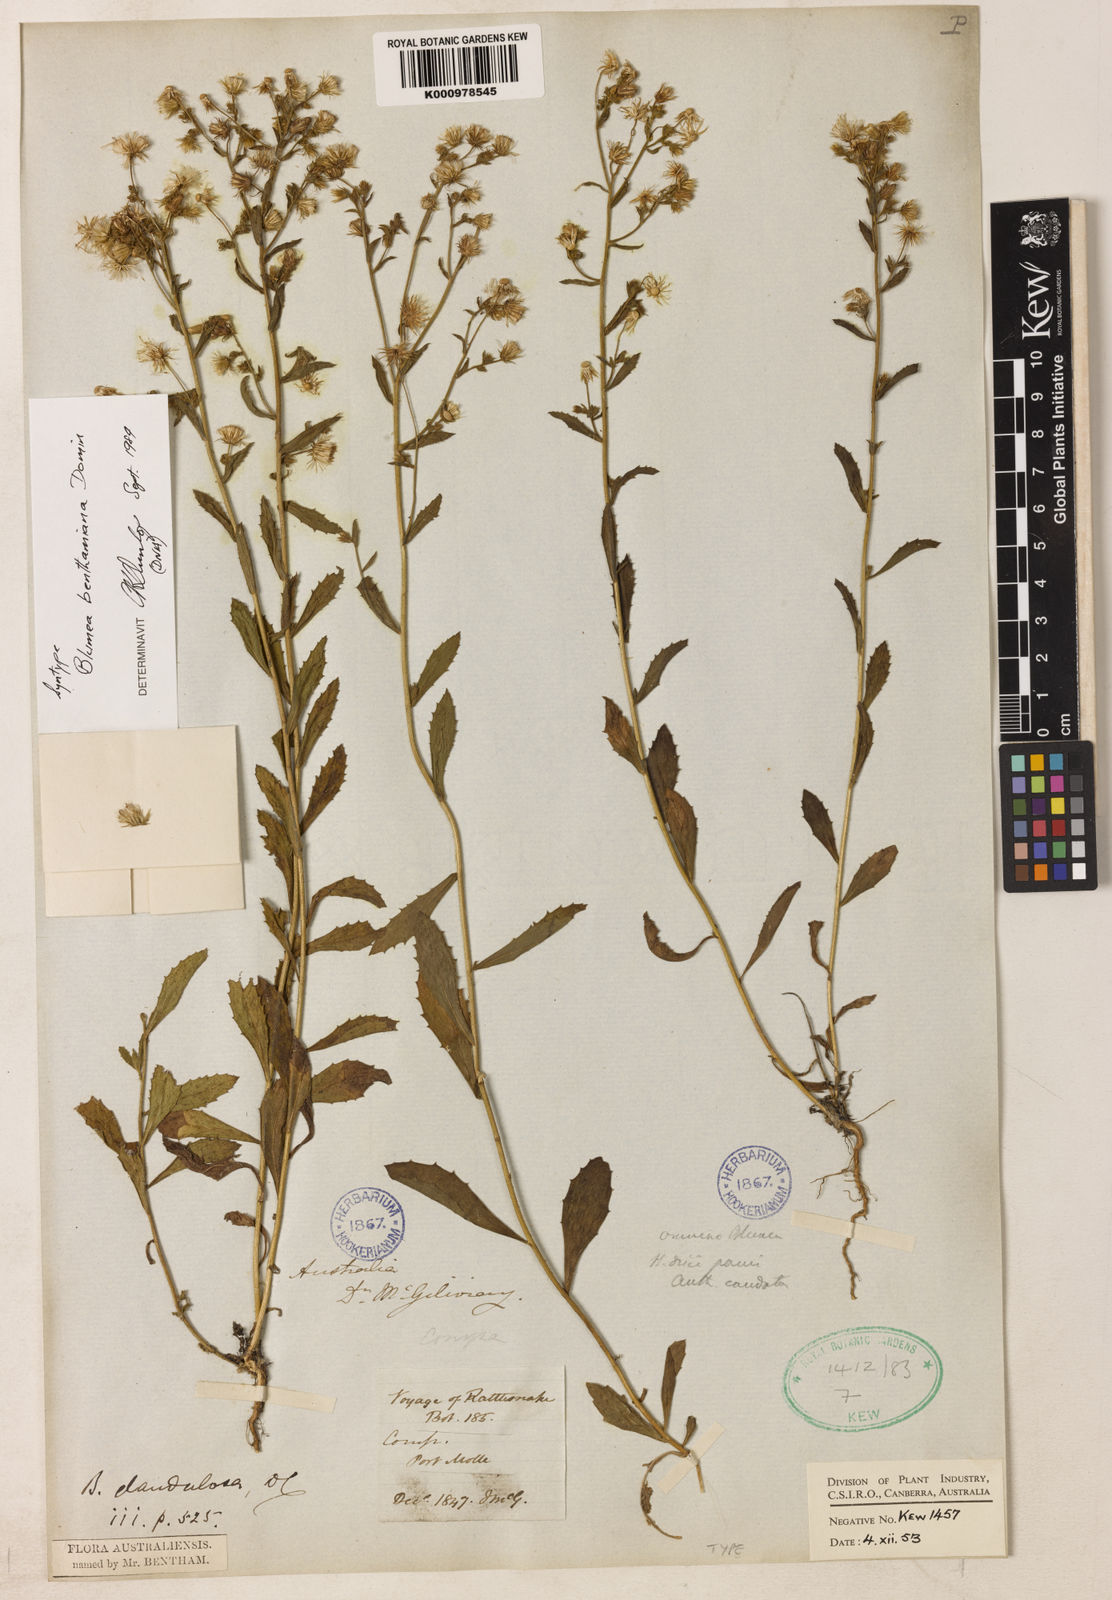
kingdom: Plantae
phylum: Tracheophyta
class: Magnoliopsida
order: Asterales
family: Asteraceae
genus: Blumea
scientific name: Blumea benthamiana
